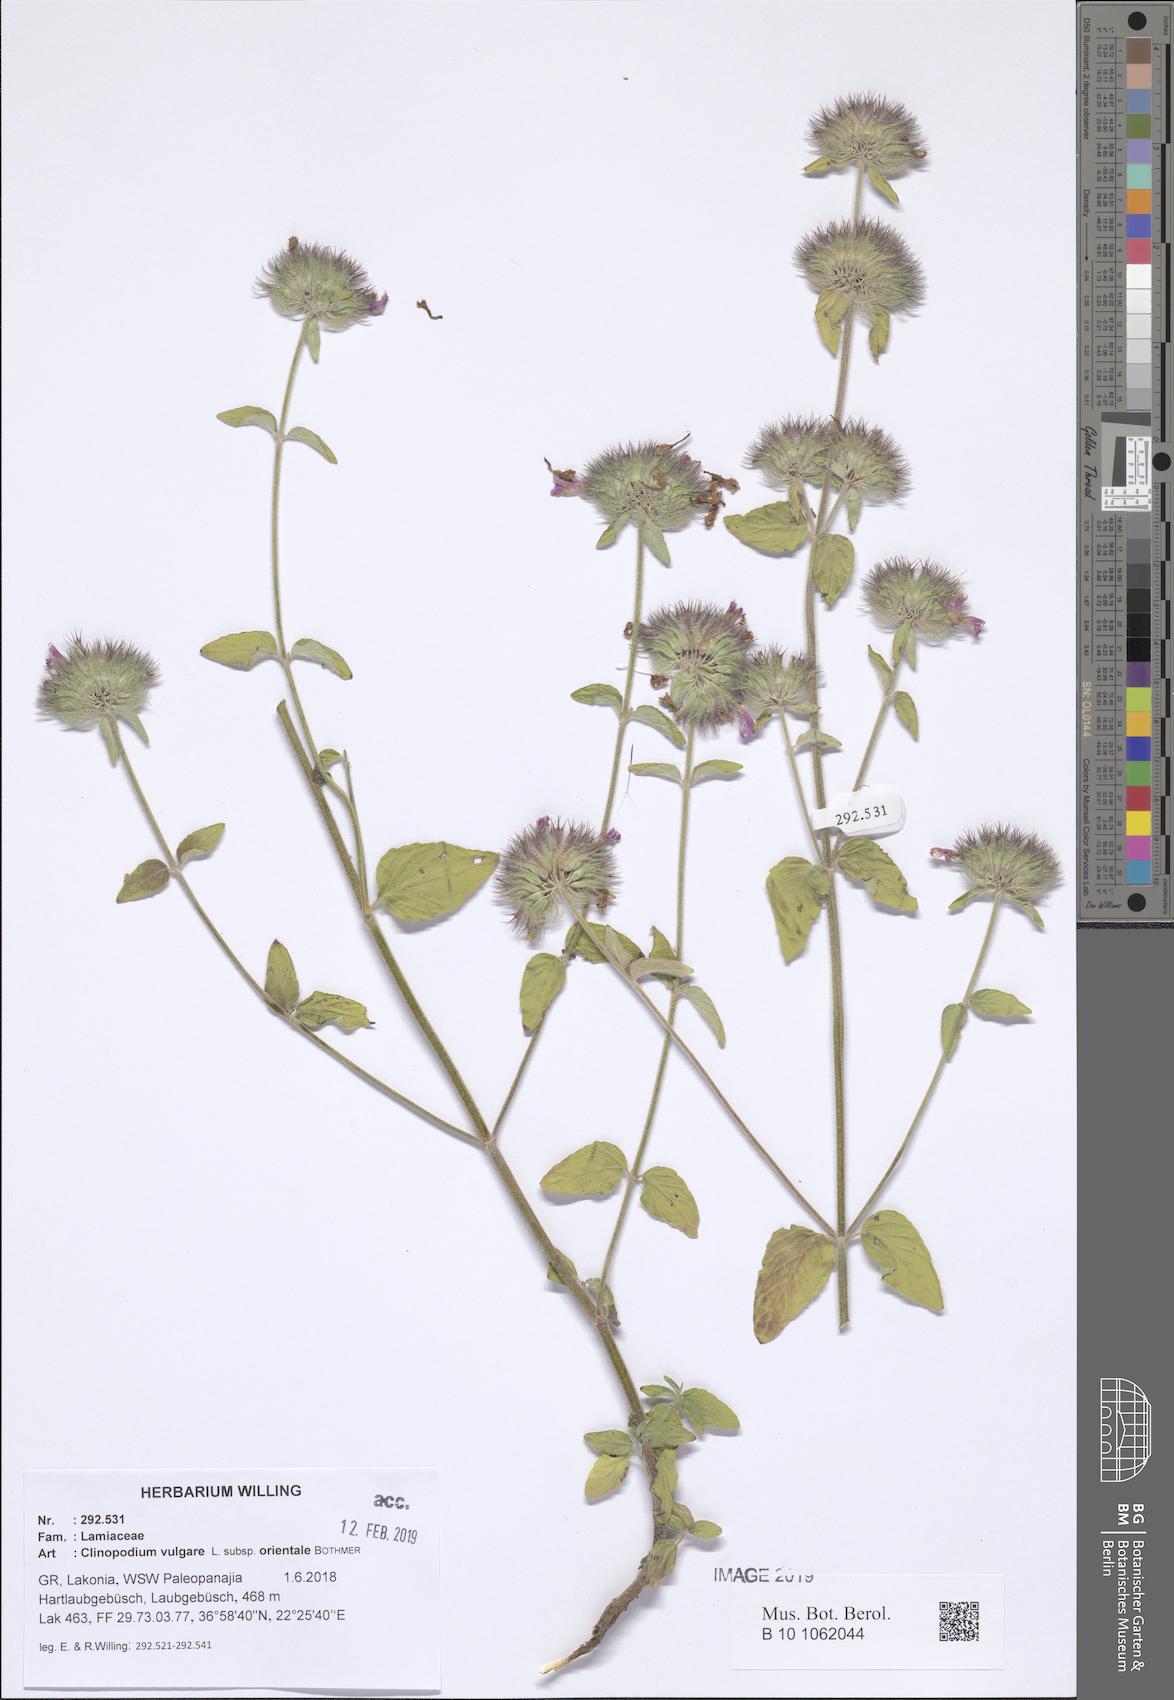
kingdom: Plantae
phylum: Tracheophyta
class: Magnoliopsida
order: Lamiales
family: Lamiaceae
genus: Clinopodium
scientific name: Clinopodium vulgare
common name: Wild basil
